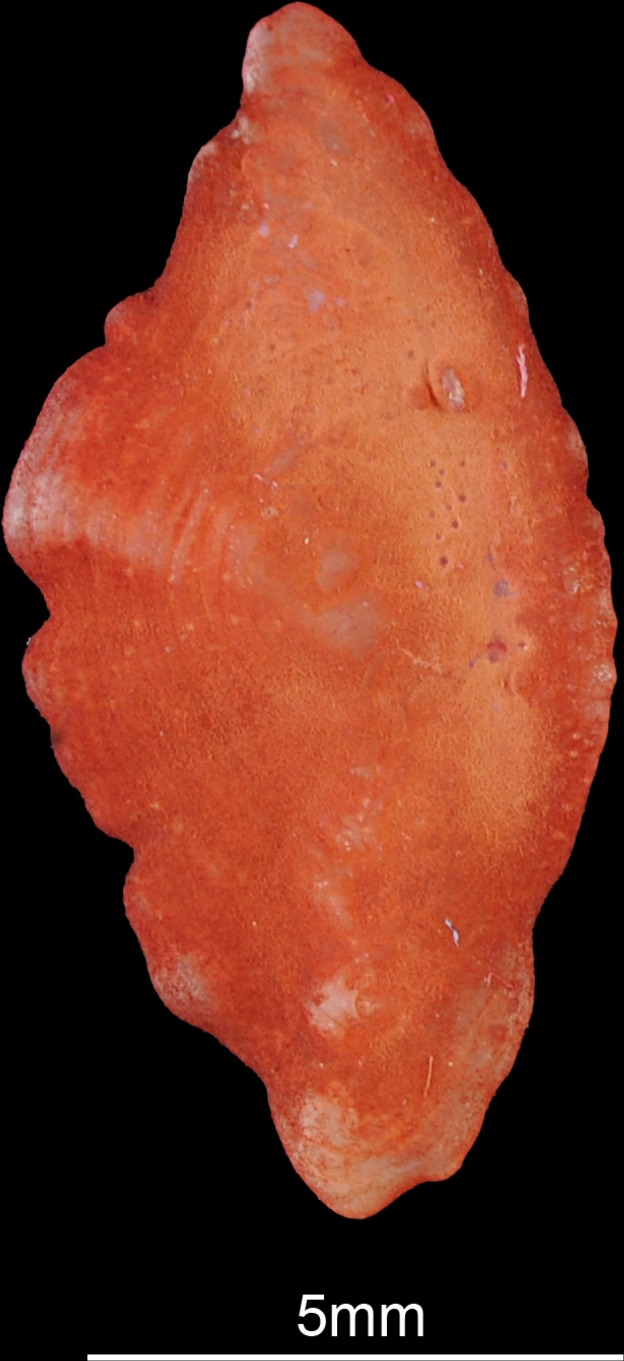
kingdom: Animalia
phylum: Chordata
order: Scorpaeniformes
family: Sebastidae
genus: Helicolenus
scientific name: Helicolenus dactylopterus
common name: Blackbelly rosefish
